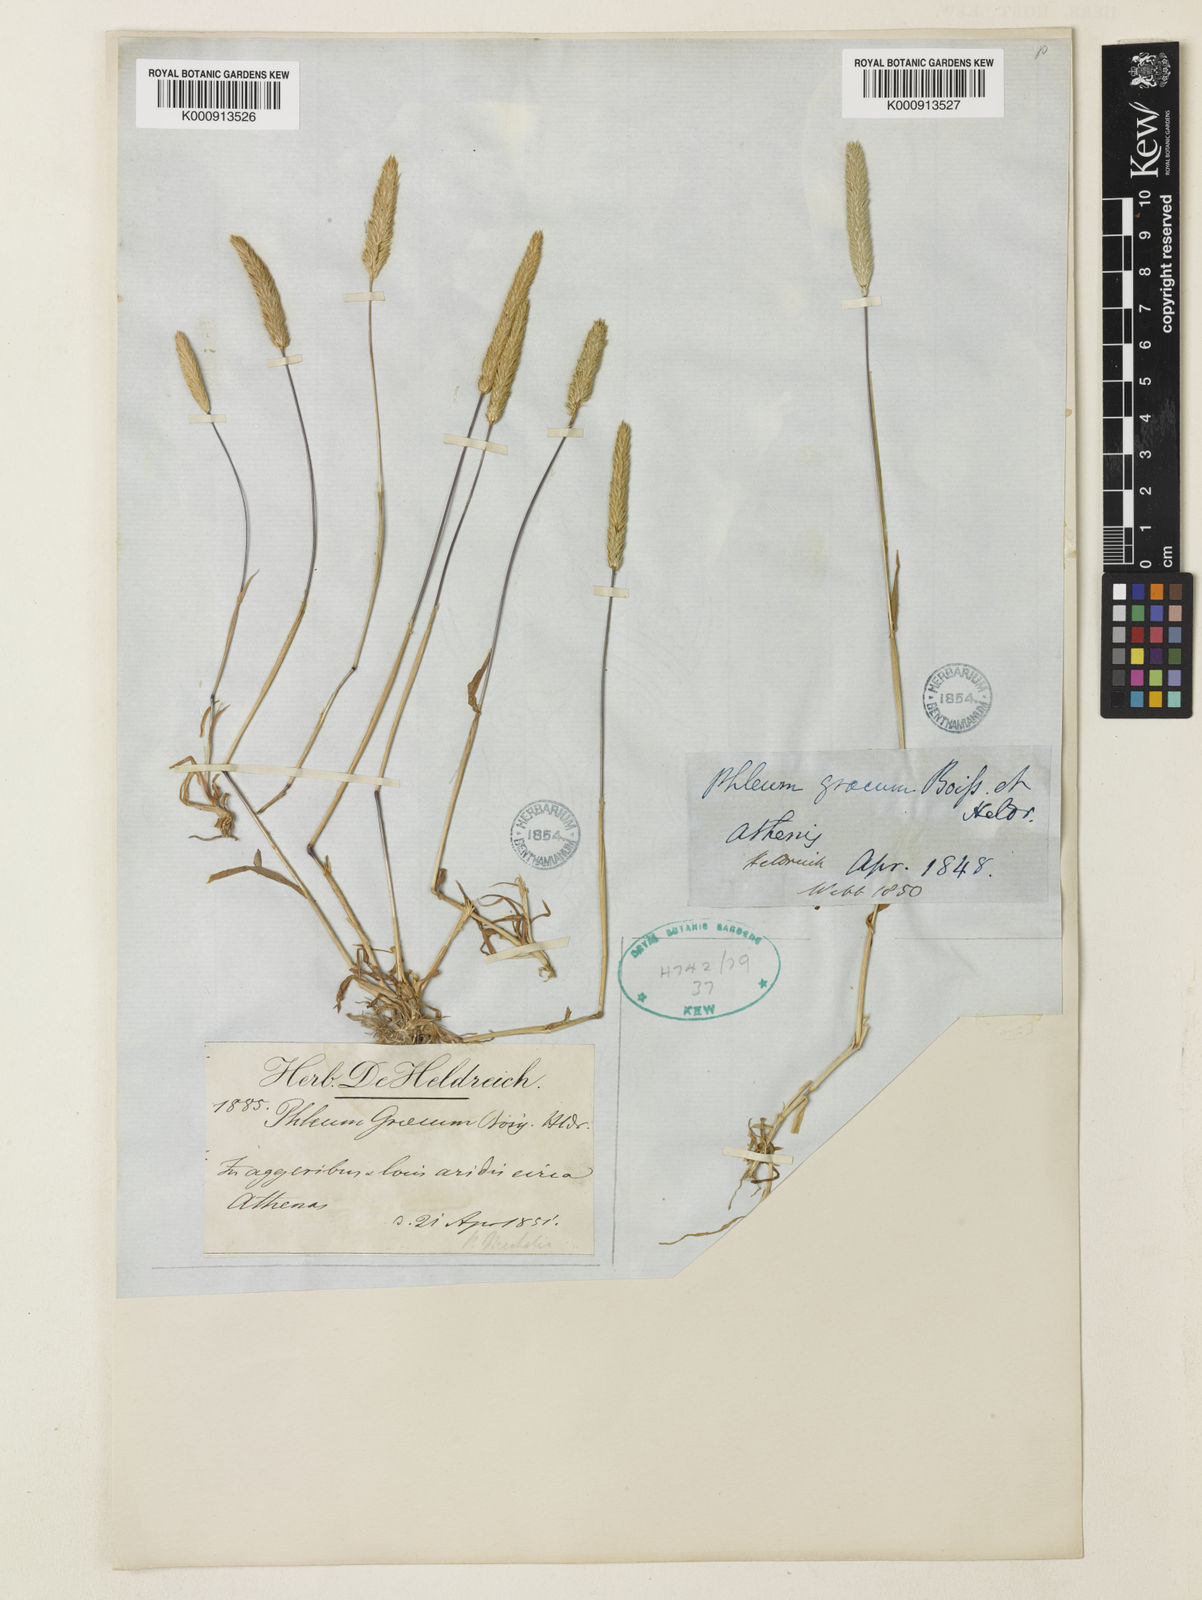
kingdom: Plantae
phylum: Tracheophyta
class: Liliopsida
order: Poales
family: Poaceae
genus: Phleum
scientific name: Phleum exaratum
